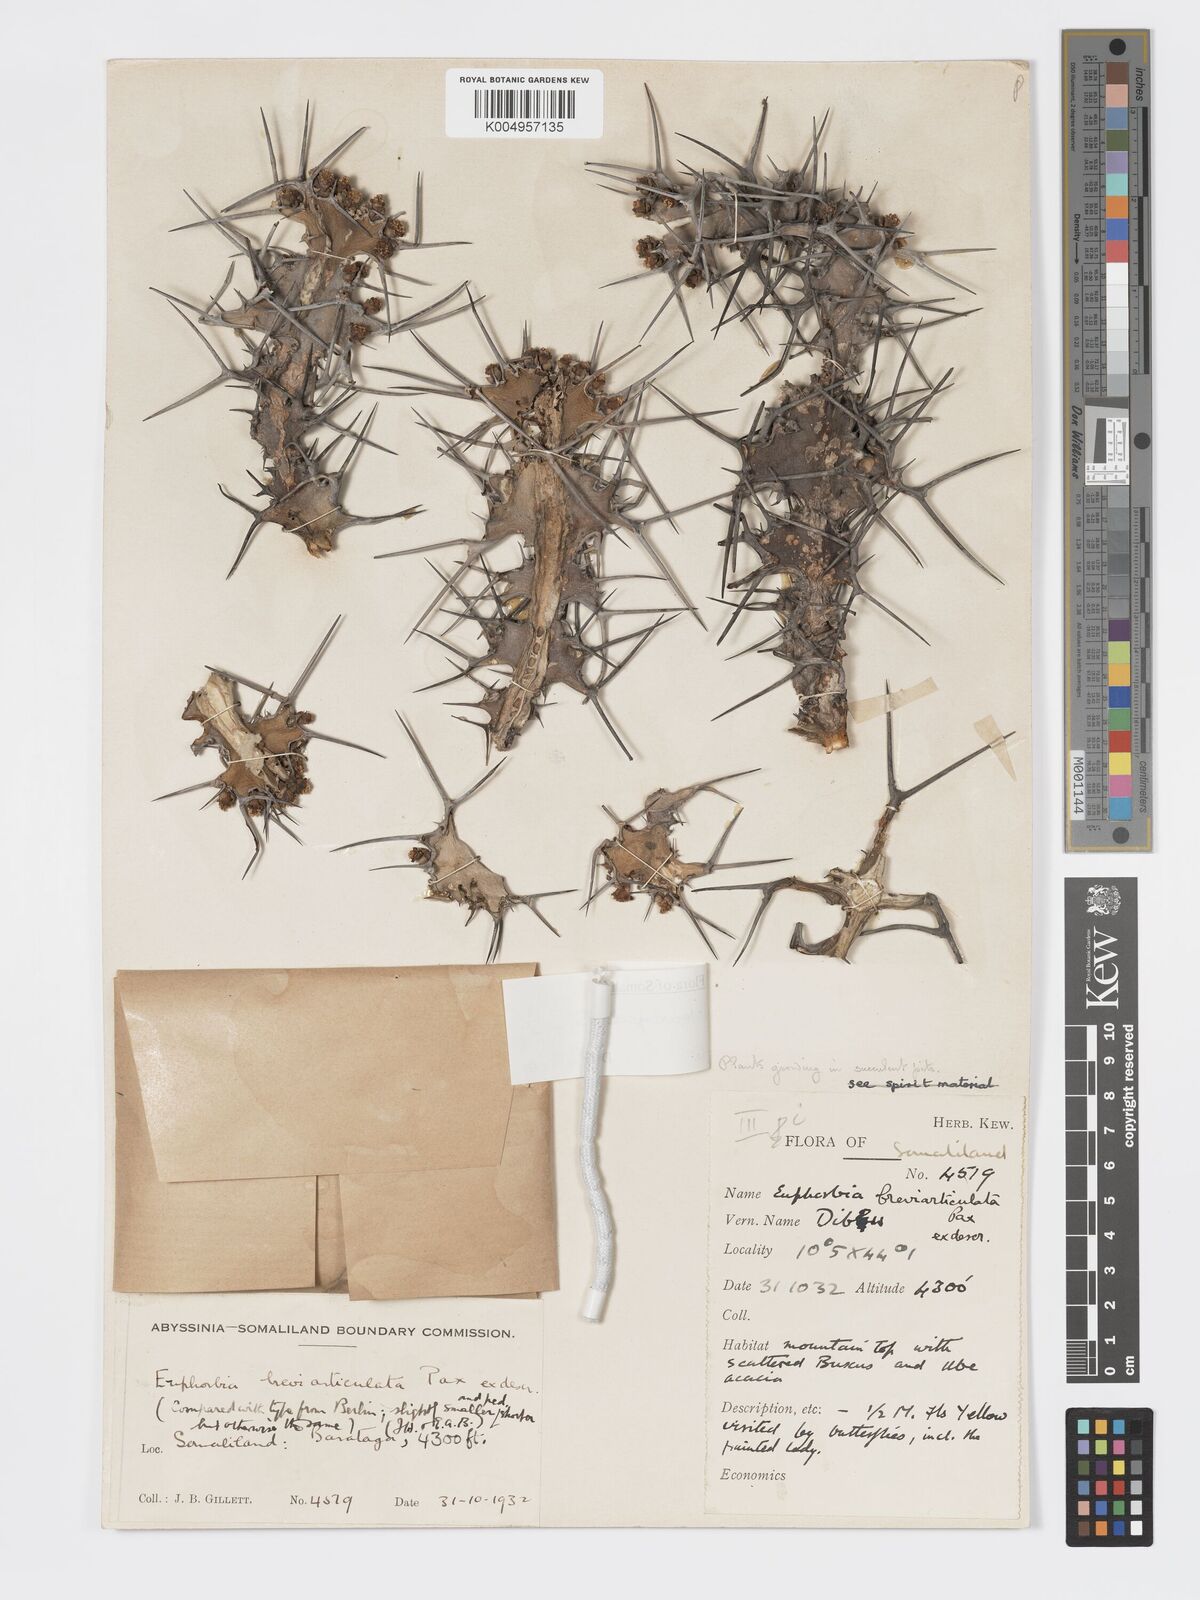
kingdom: Plantae
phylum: Tracheophyta
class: Magnoliopsida
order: Malpighiales
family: Euphorbiaceae
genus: Euphorbia
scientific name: Euphorbia leontopoda
